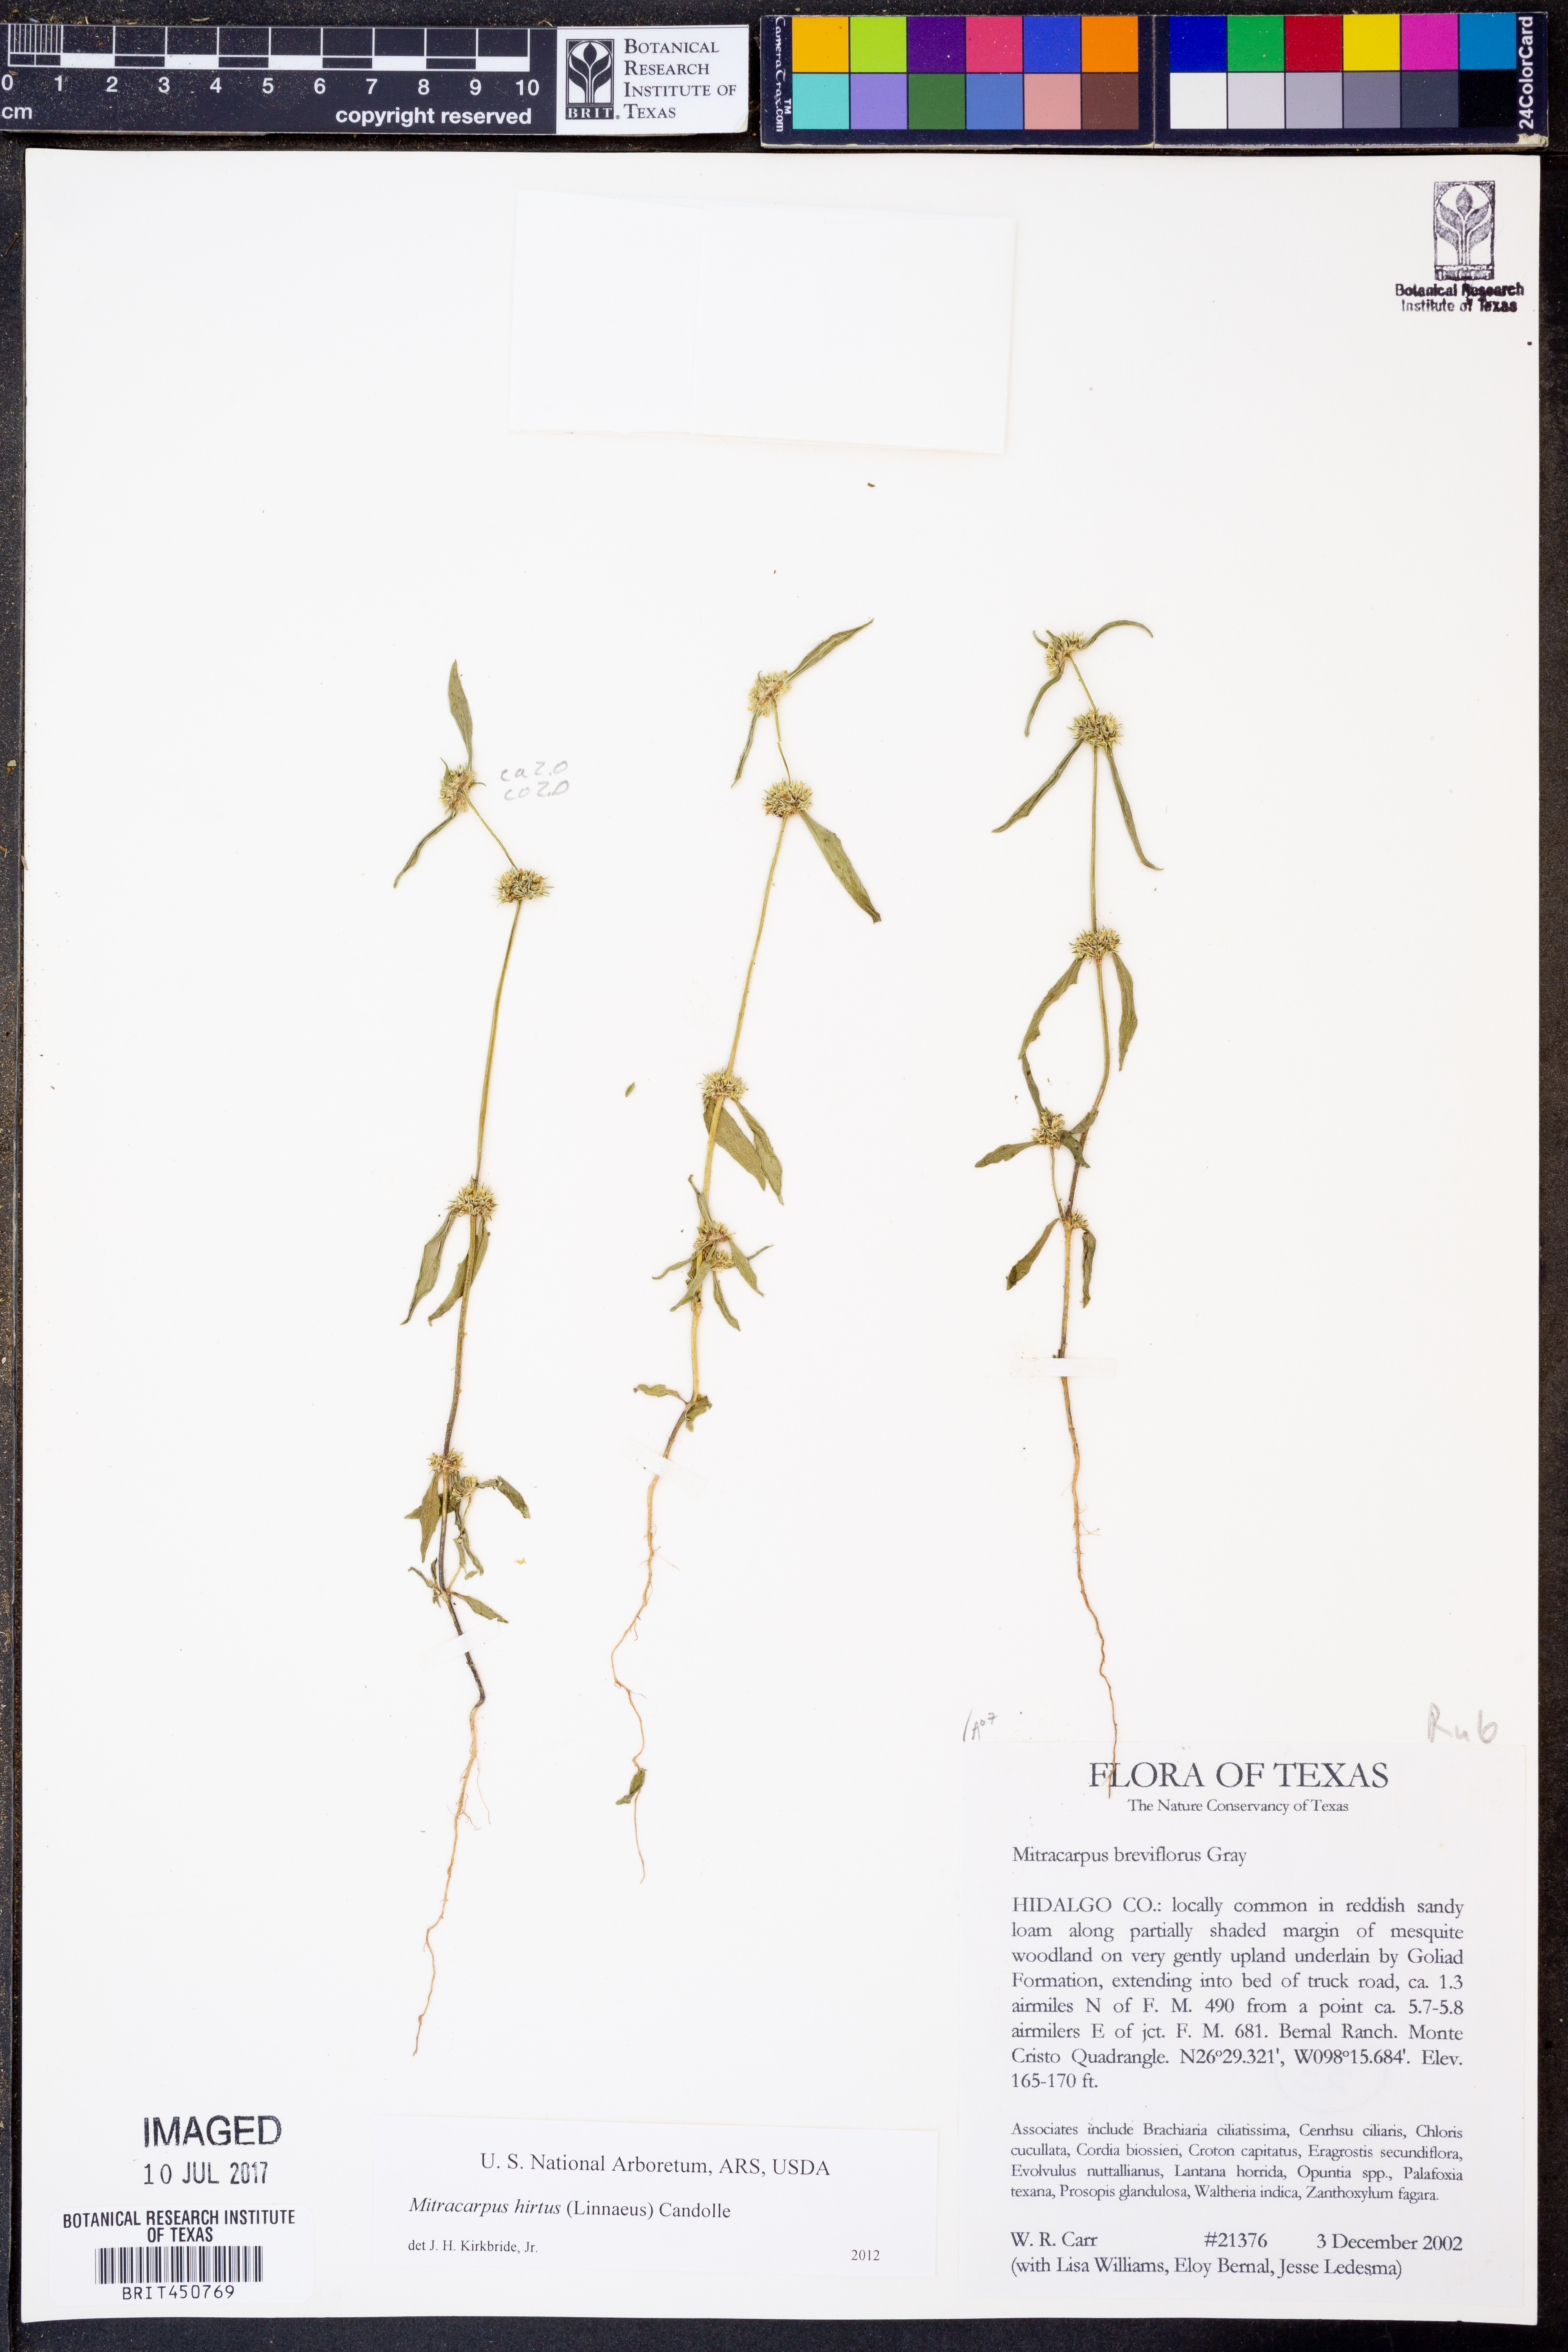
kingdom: Plantae
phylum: Tracheophyta
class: Magnoliopsida
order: Gentianales
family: Rubiaceae
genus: Mitracarpus
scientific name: Mitracarpus hirtus
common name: Tropical girdlepod
